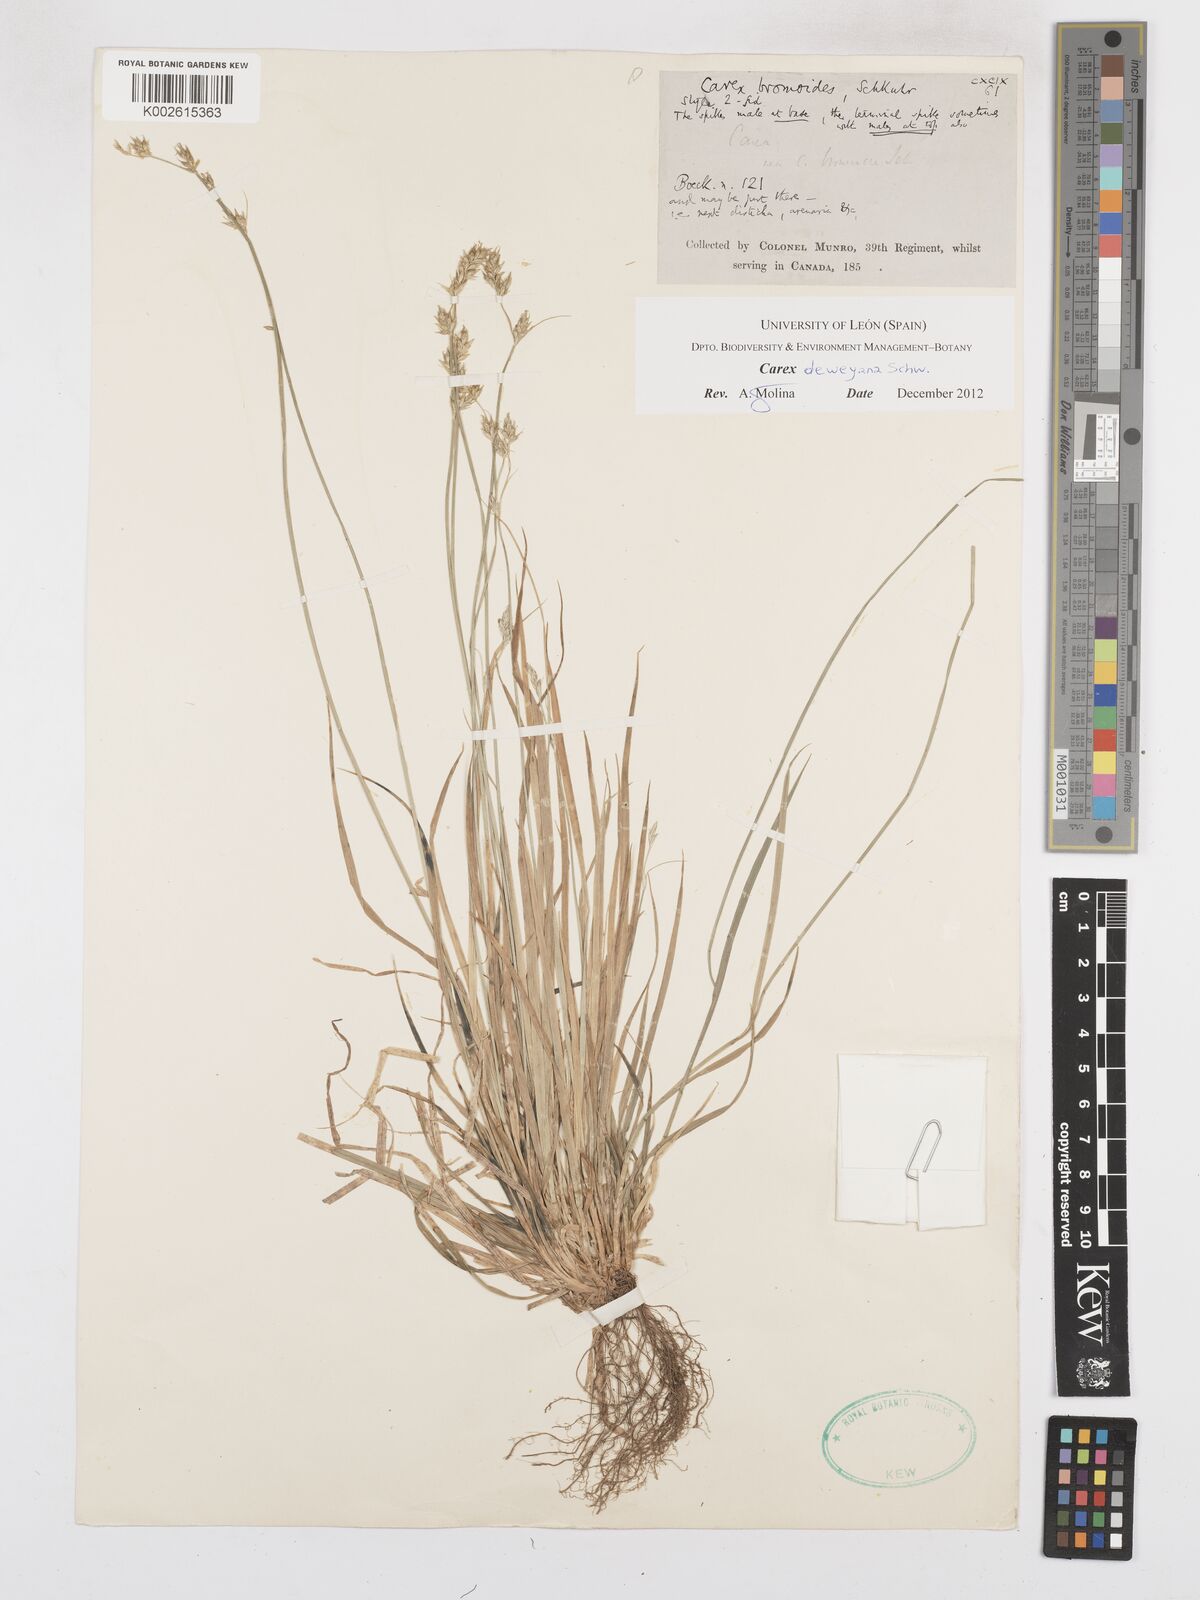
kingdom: Plantae
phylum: Tracheophyta
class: Liliopsida
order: Poales
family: Cyperaceae
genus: Carex
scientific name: Carex deweyana
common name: Dewey's sedge
